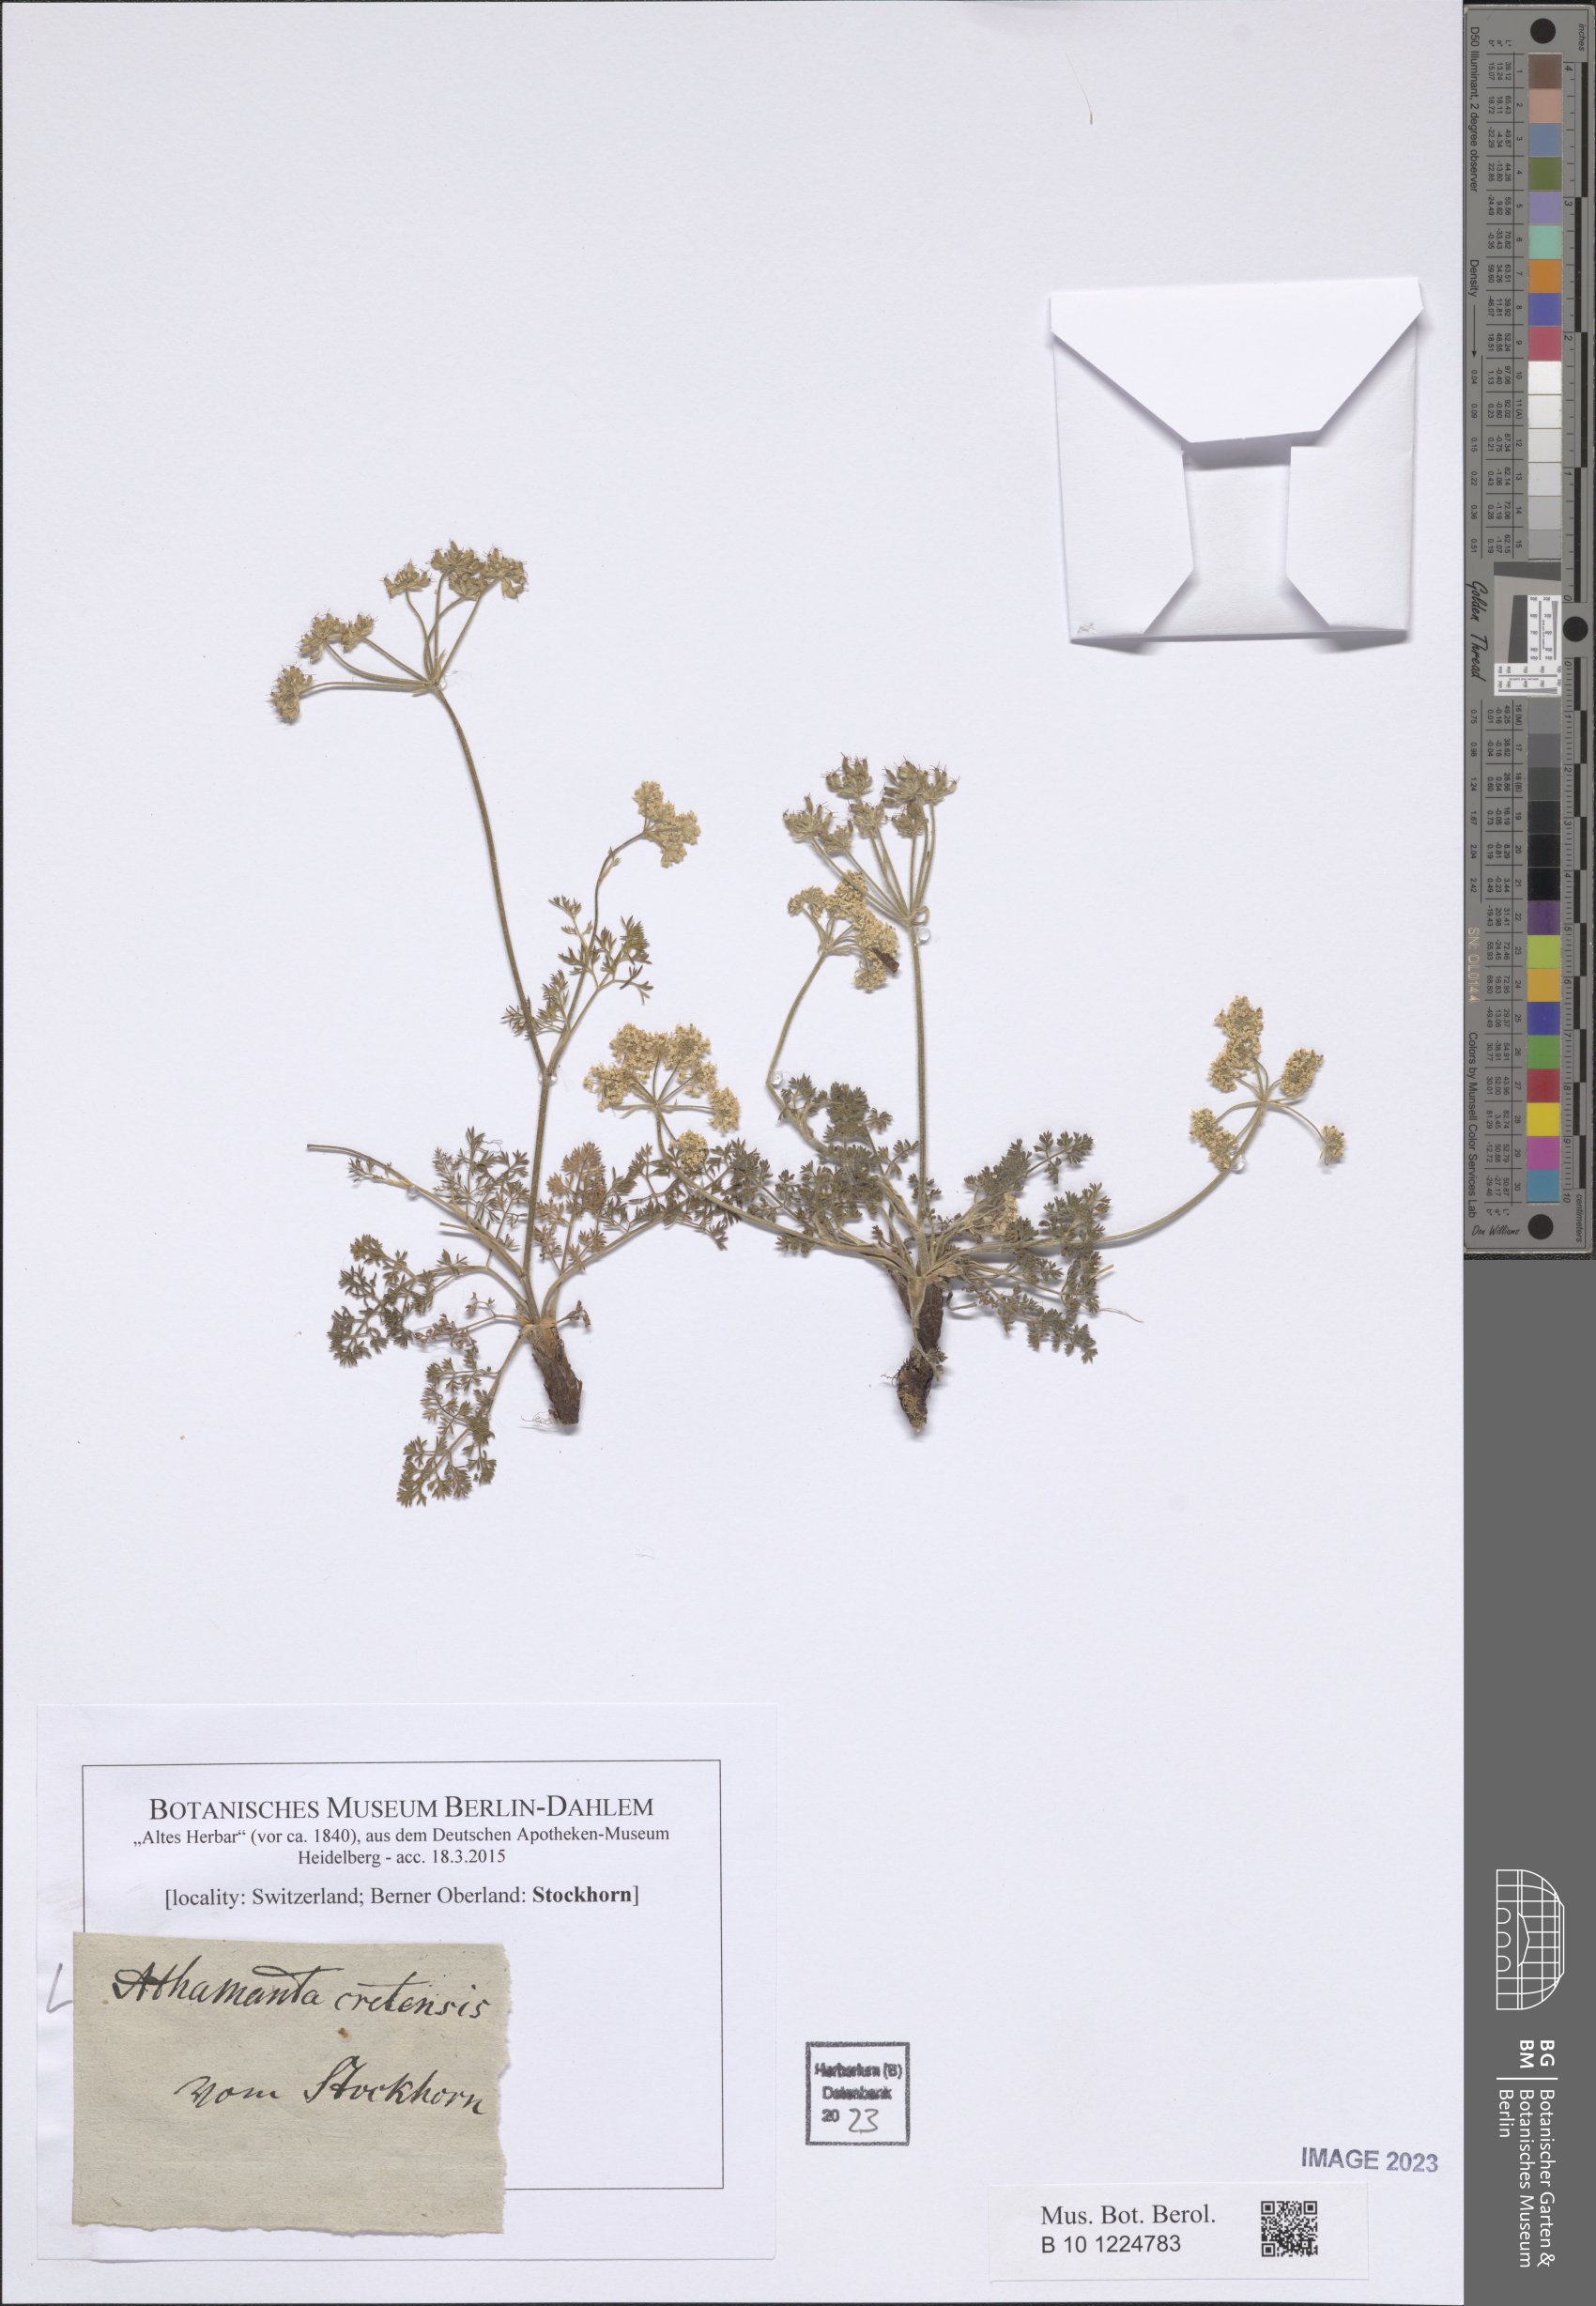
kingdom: Plantae
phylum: Tracheophyta
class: Magnoliopsida
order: Apiales
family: Apiaceae
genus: Athamanta
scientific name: Athamanta cretensis
